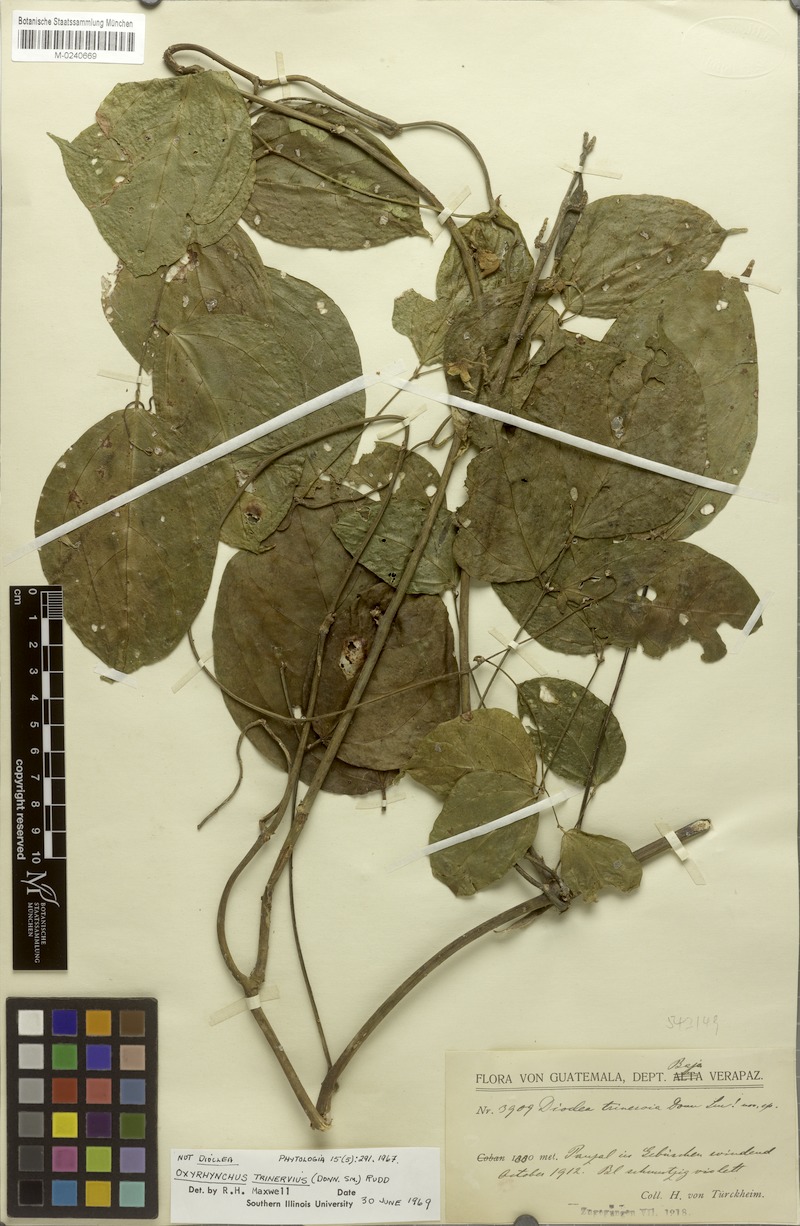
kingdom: Plantae
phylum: Tracheophyta
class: Magnoliopsida
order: Fabales
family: Fabaceae
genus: Oxyrhynchus
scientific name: Oxyrhynchus trinervius
